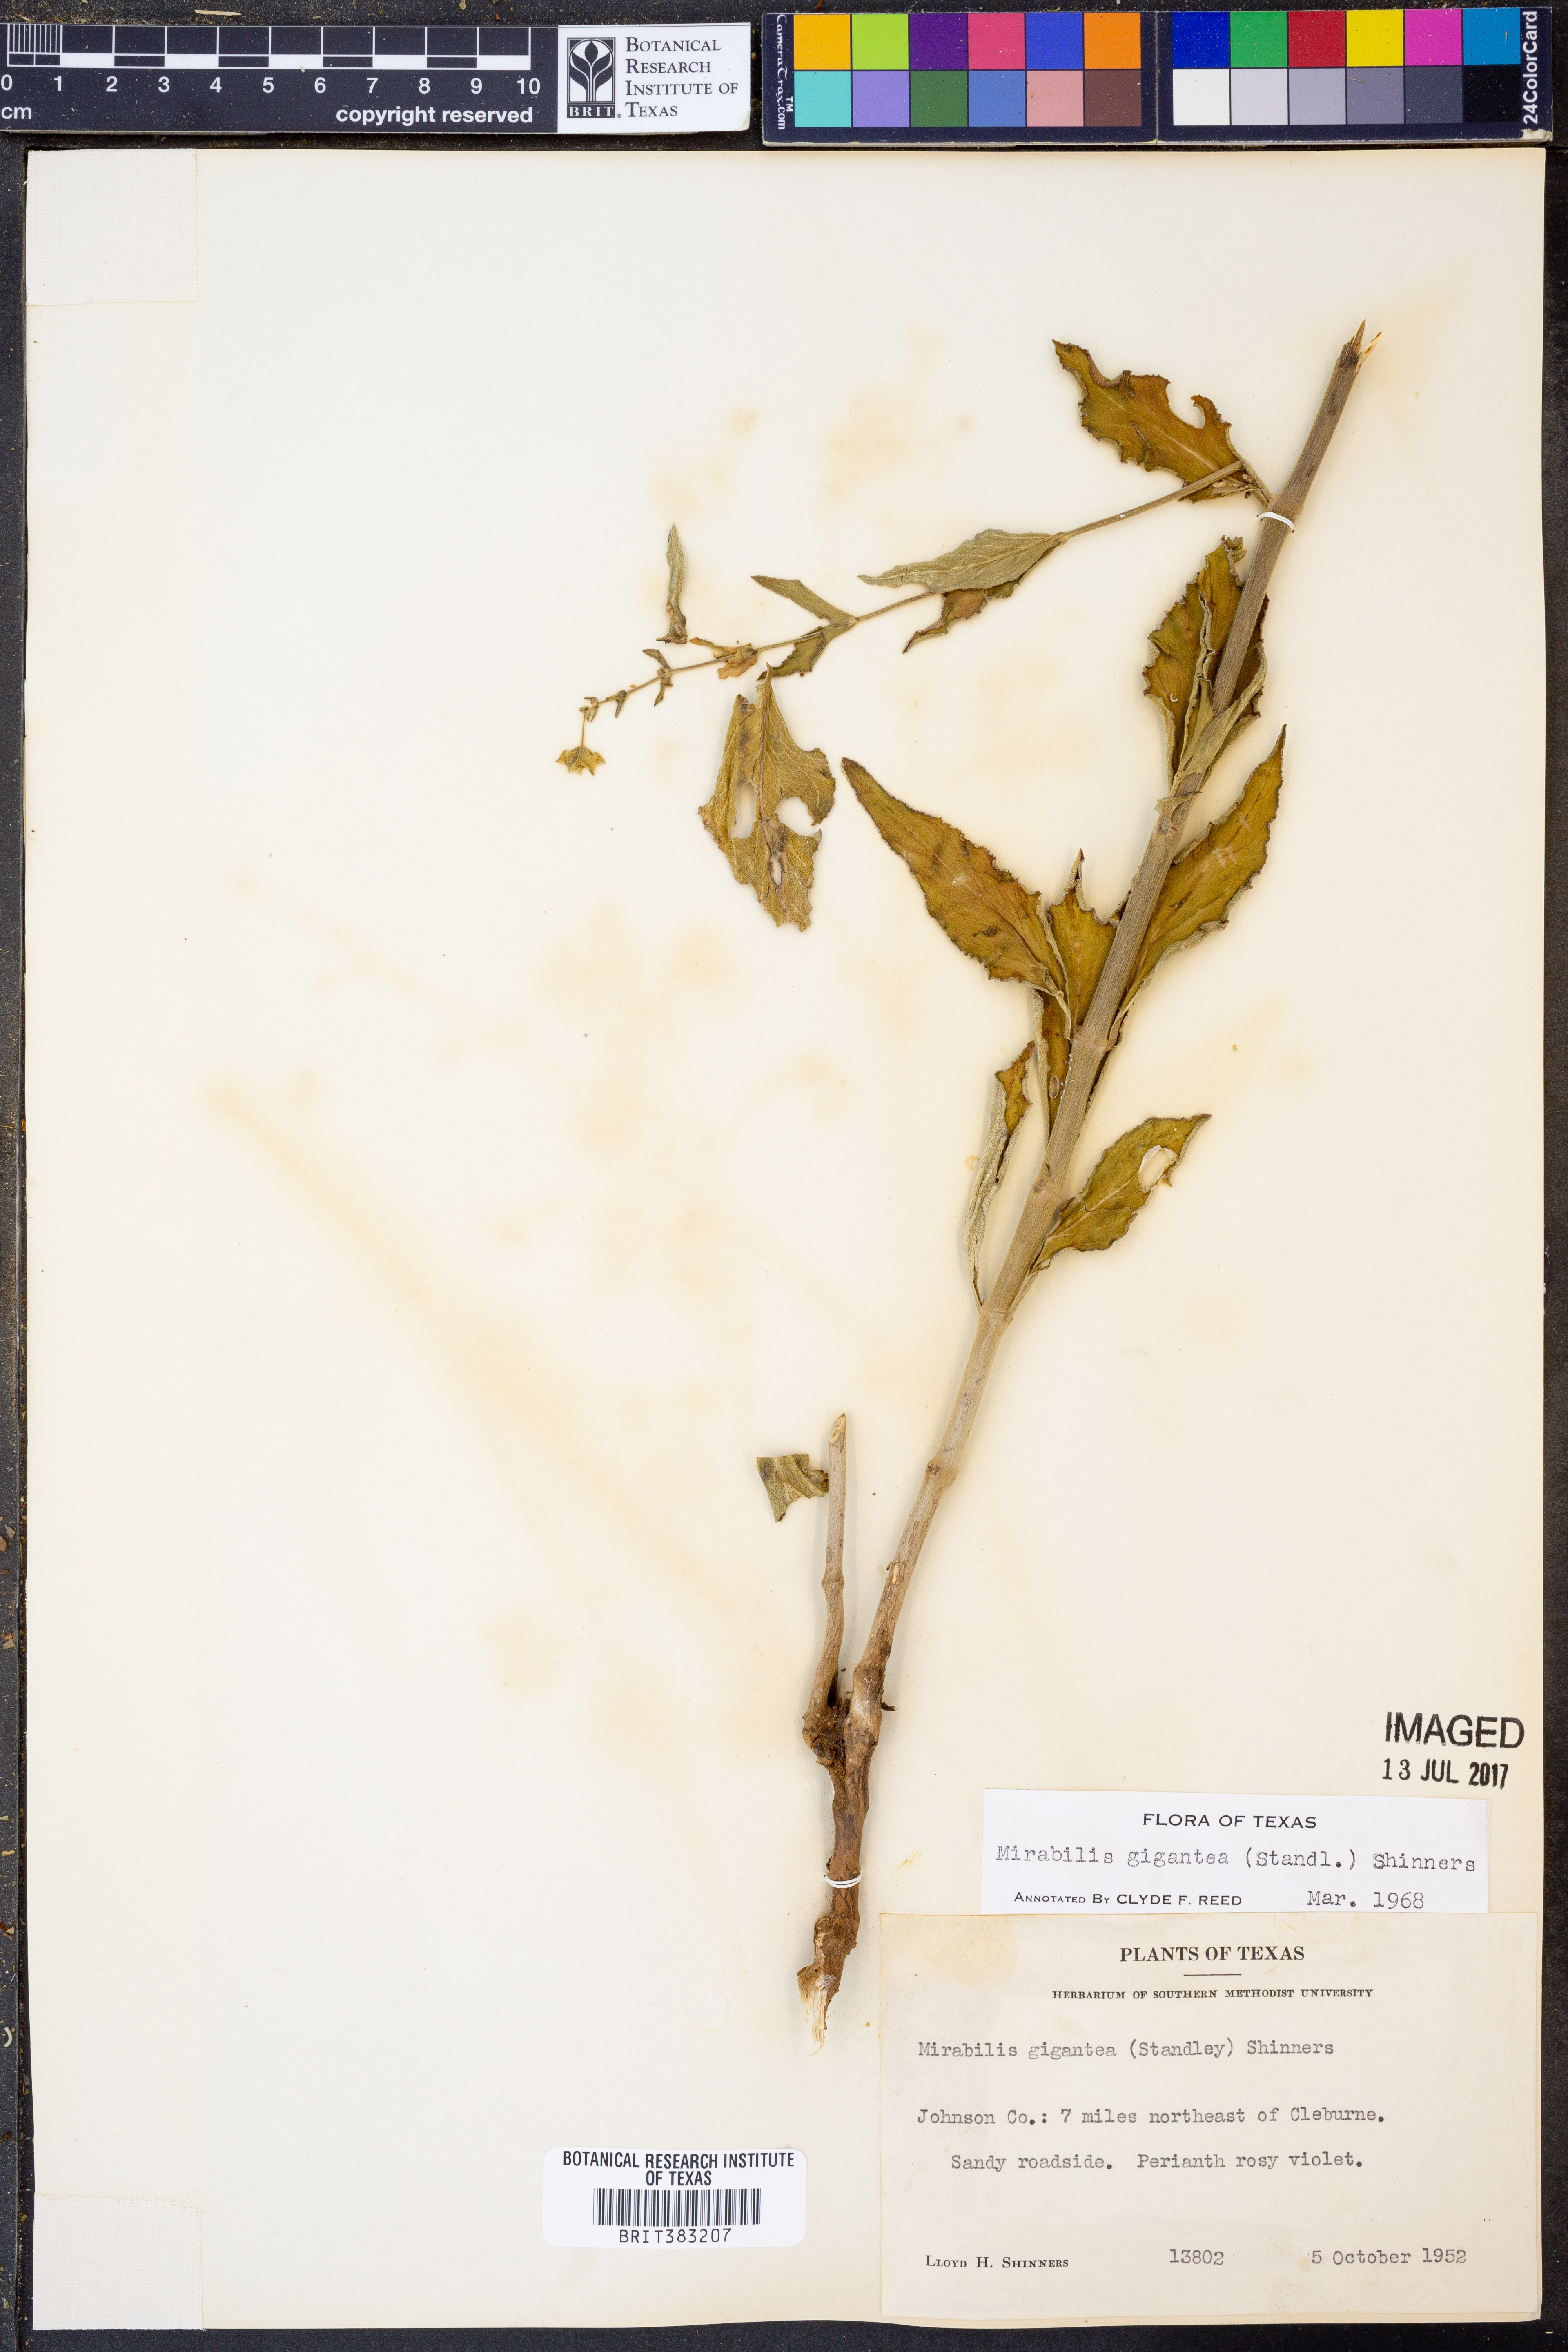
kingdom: Plantae
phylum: Tracheophyta
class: Magnoliopsida
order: Caryophyllales
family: Nyctaginaceae
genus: Mirabilis
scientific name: Mirabilis gigantea
